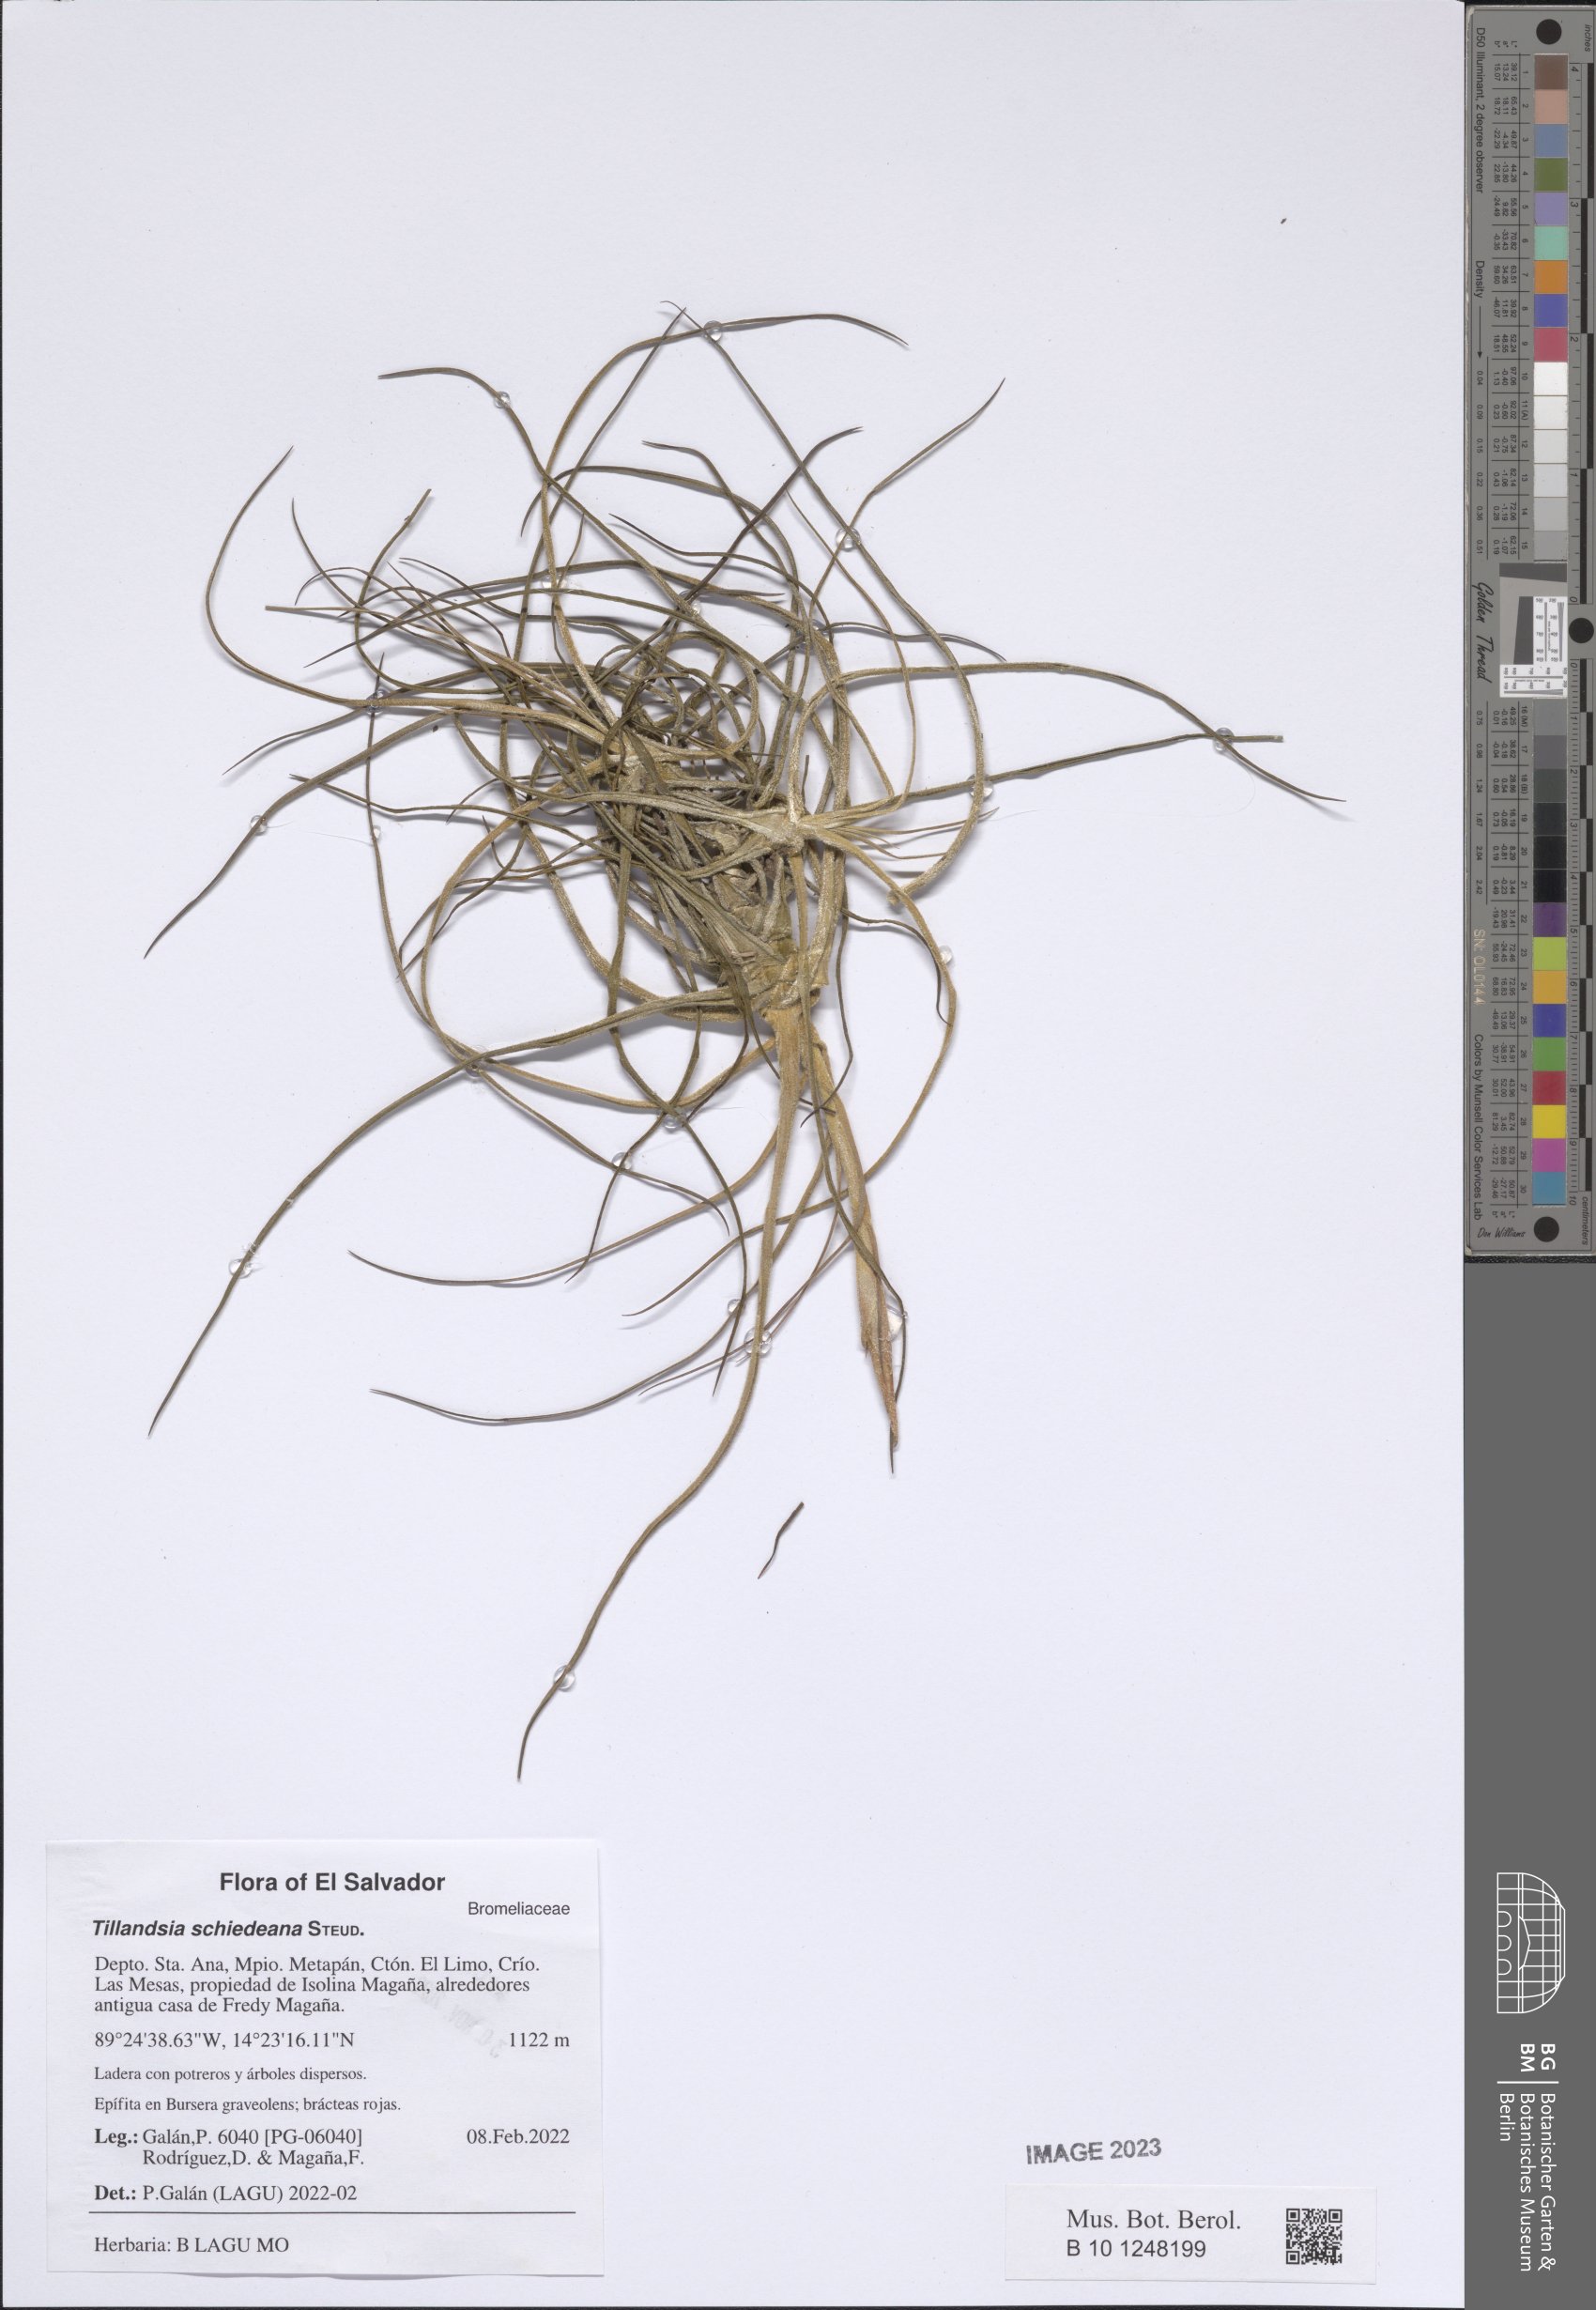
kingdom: Plantae
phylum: Tracheophyta
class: Liliopsida
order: Poales
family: Bromeliaceae
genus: Tillandsia
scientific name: Tillandsia schiedeana
